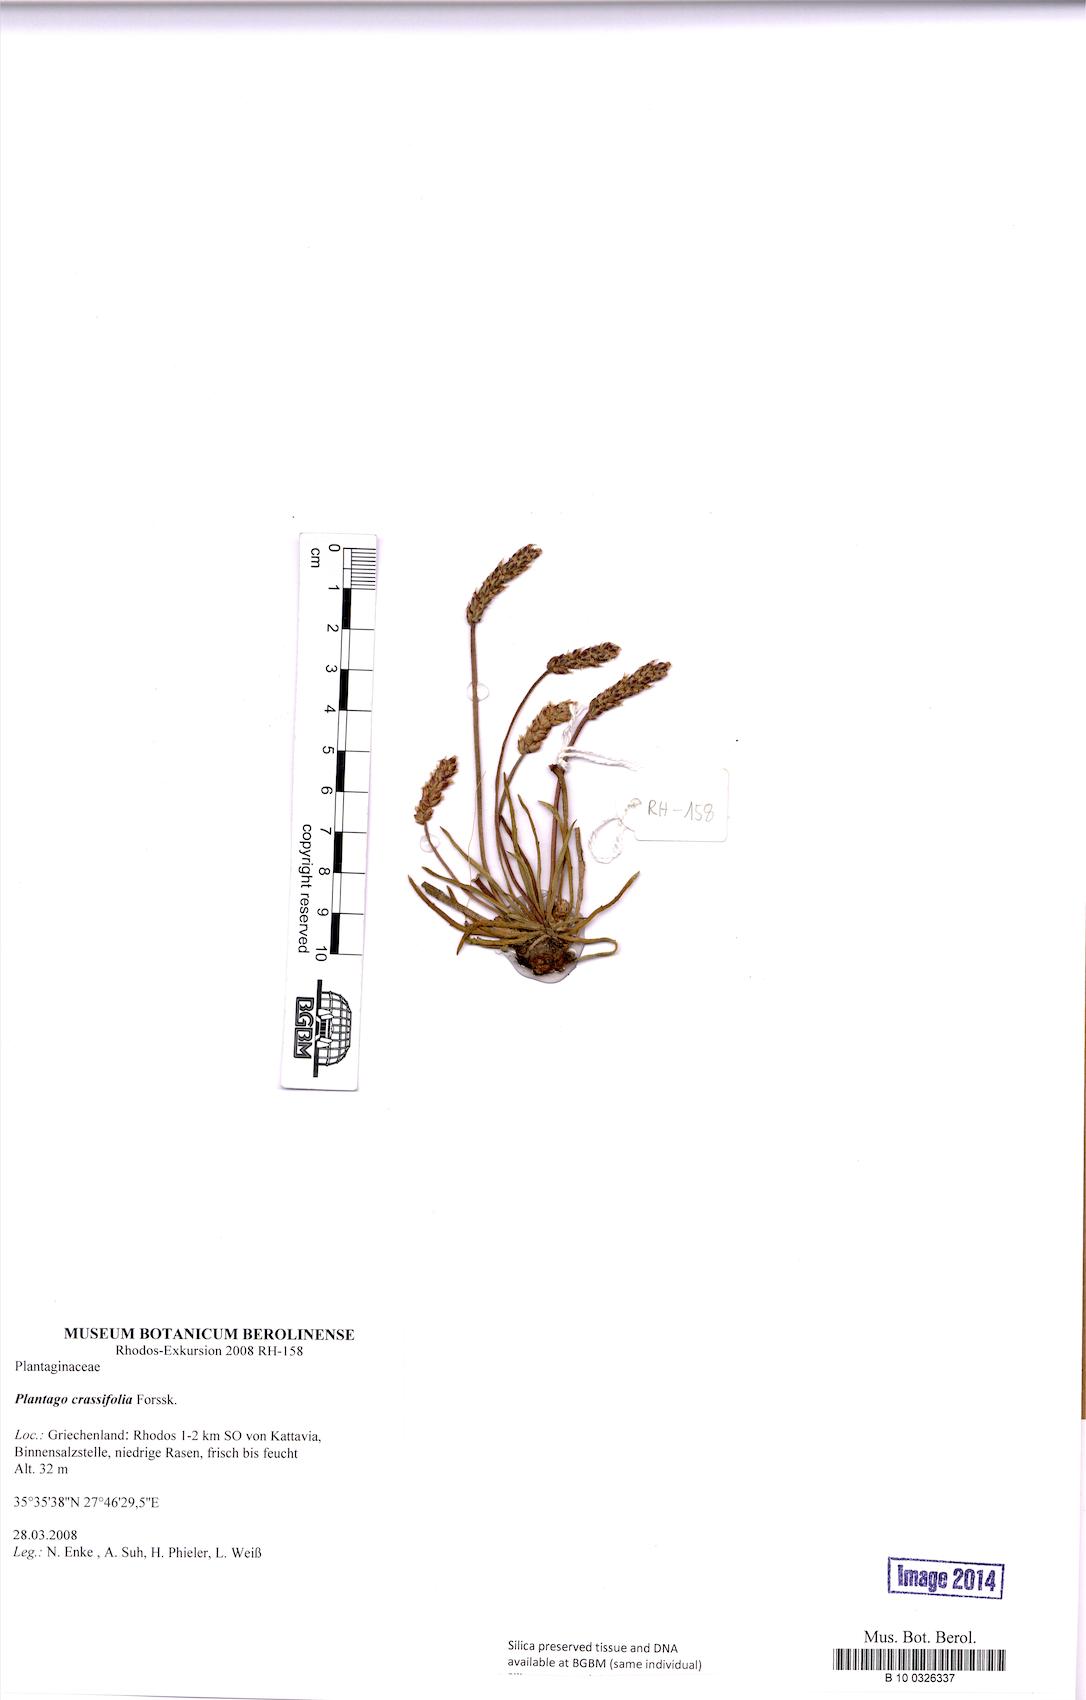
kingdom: Plantae
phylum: Tracheophyta
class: Magnoliopsida
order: Lamiales
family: Plantaginaceae
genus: Plantago
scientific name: Plantago crassifolia
